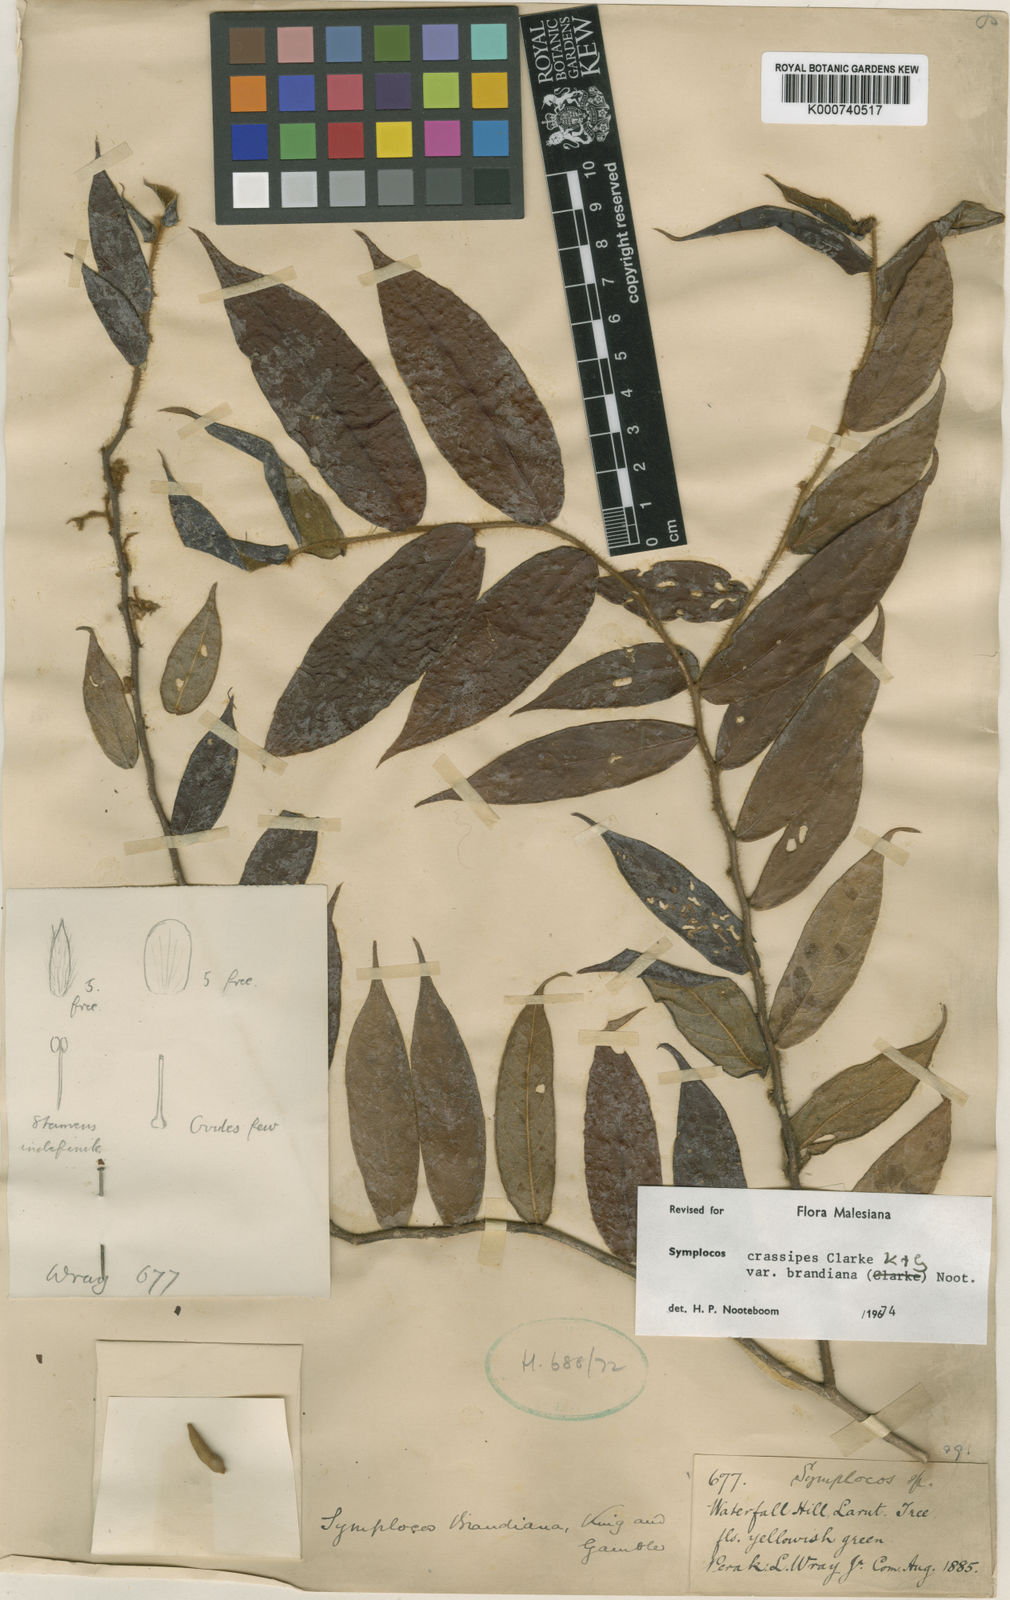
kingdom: Plantae
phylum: Tracheophyta
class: Magnoliopsida
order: Ericales
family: Symplocaceae
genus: Symplocos
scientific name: Symplocos crassipes
